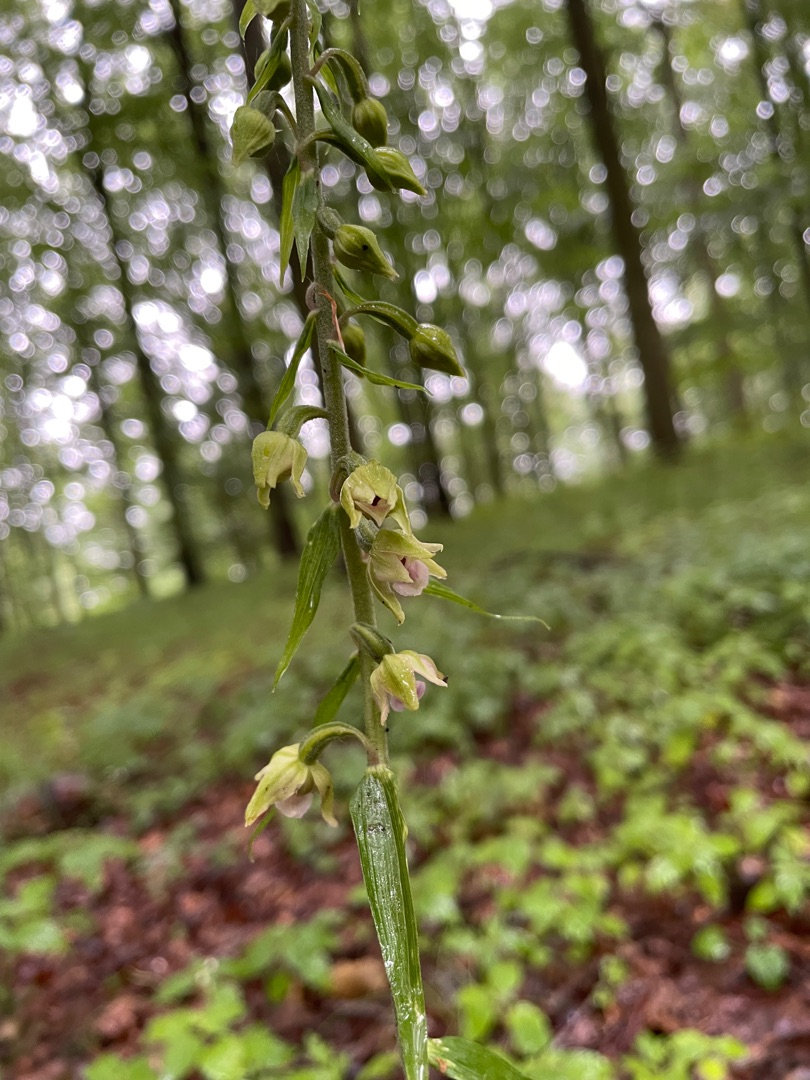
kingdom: Plantae
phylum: Tracheophyta
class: Liliopsida
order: Asparagales
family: Orchidaceae
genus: Epipactis
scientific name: Epipactis helleborine
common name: Skov-hullæbe
